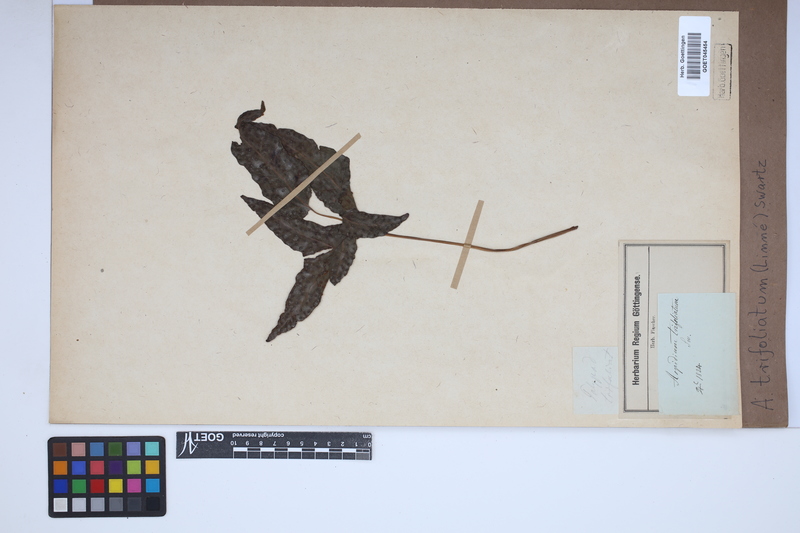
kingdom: Plantae
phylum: Tracheophyta
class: Polypodiopsida
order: Polypodiales
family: Tectariaceae
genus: Tectaria
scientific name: Tectaria trifoliata
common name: Threeleaf halberd fern
